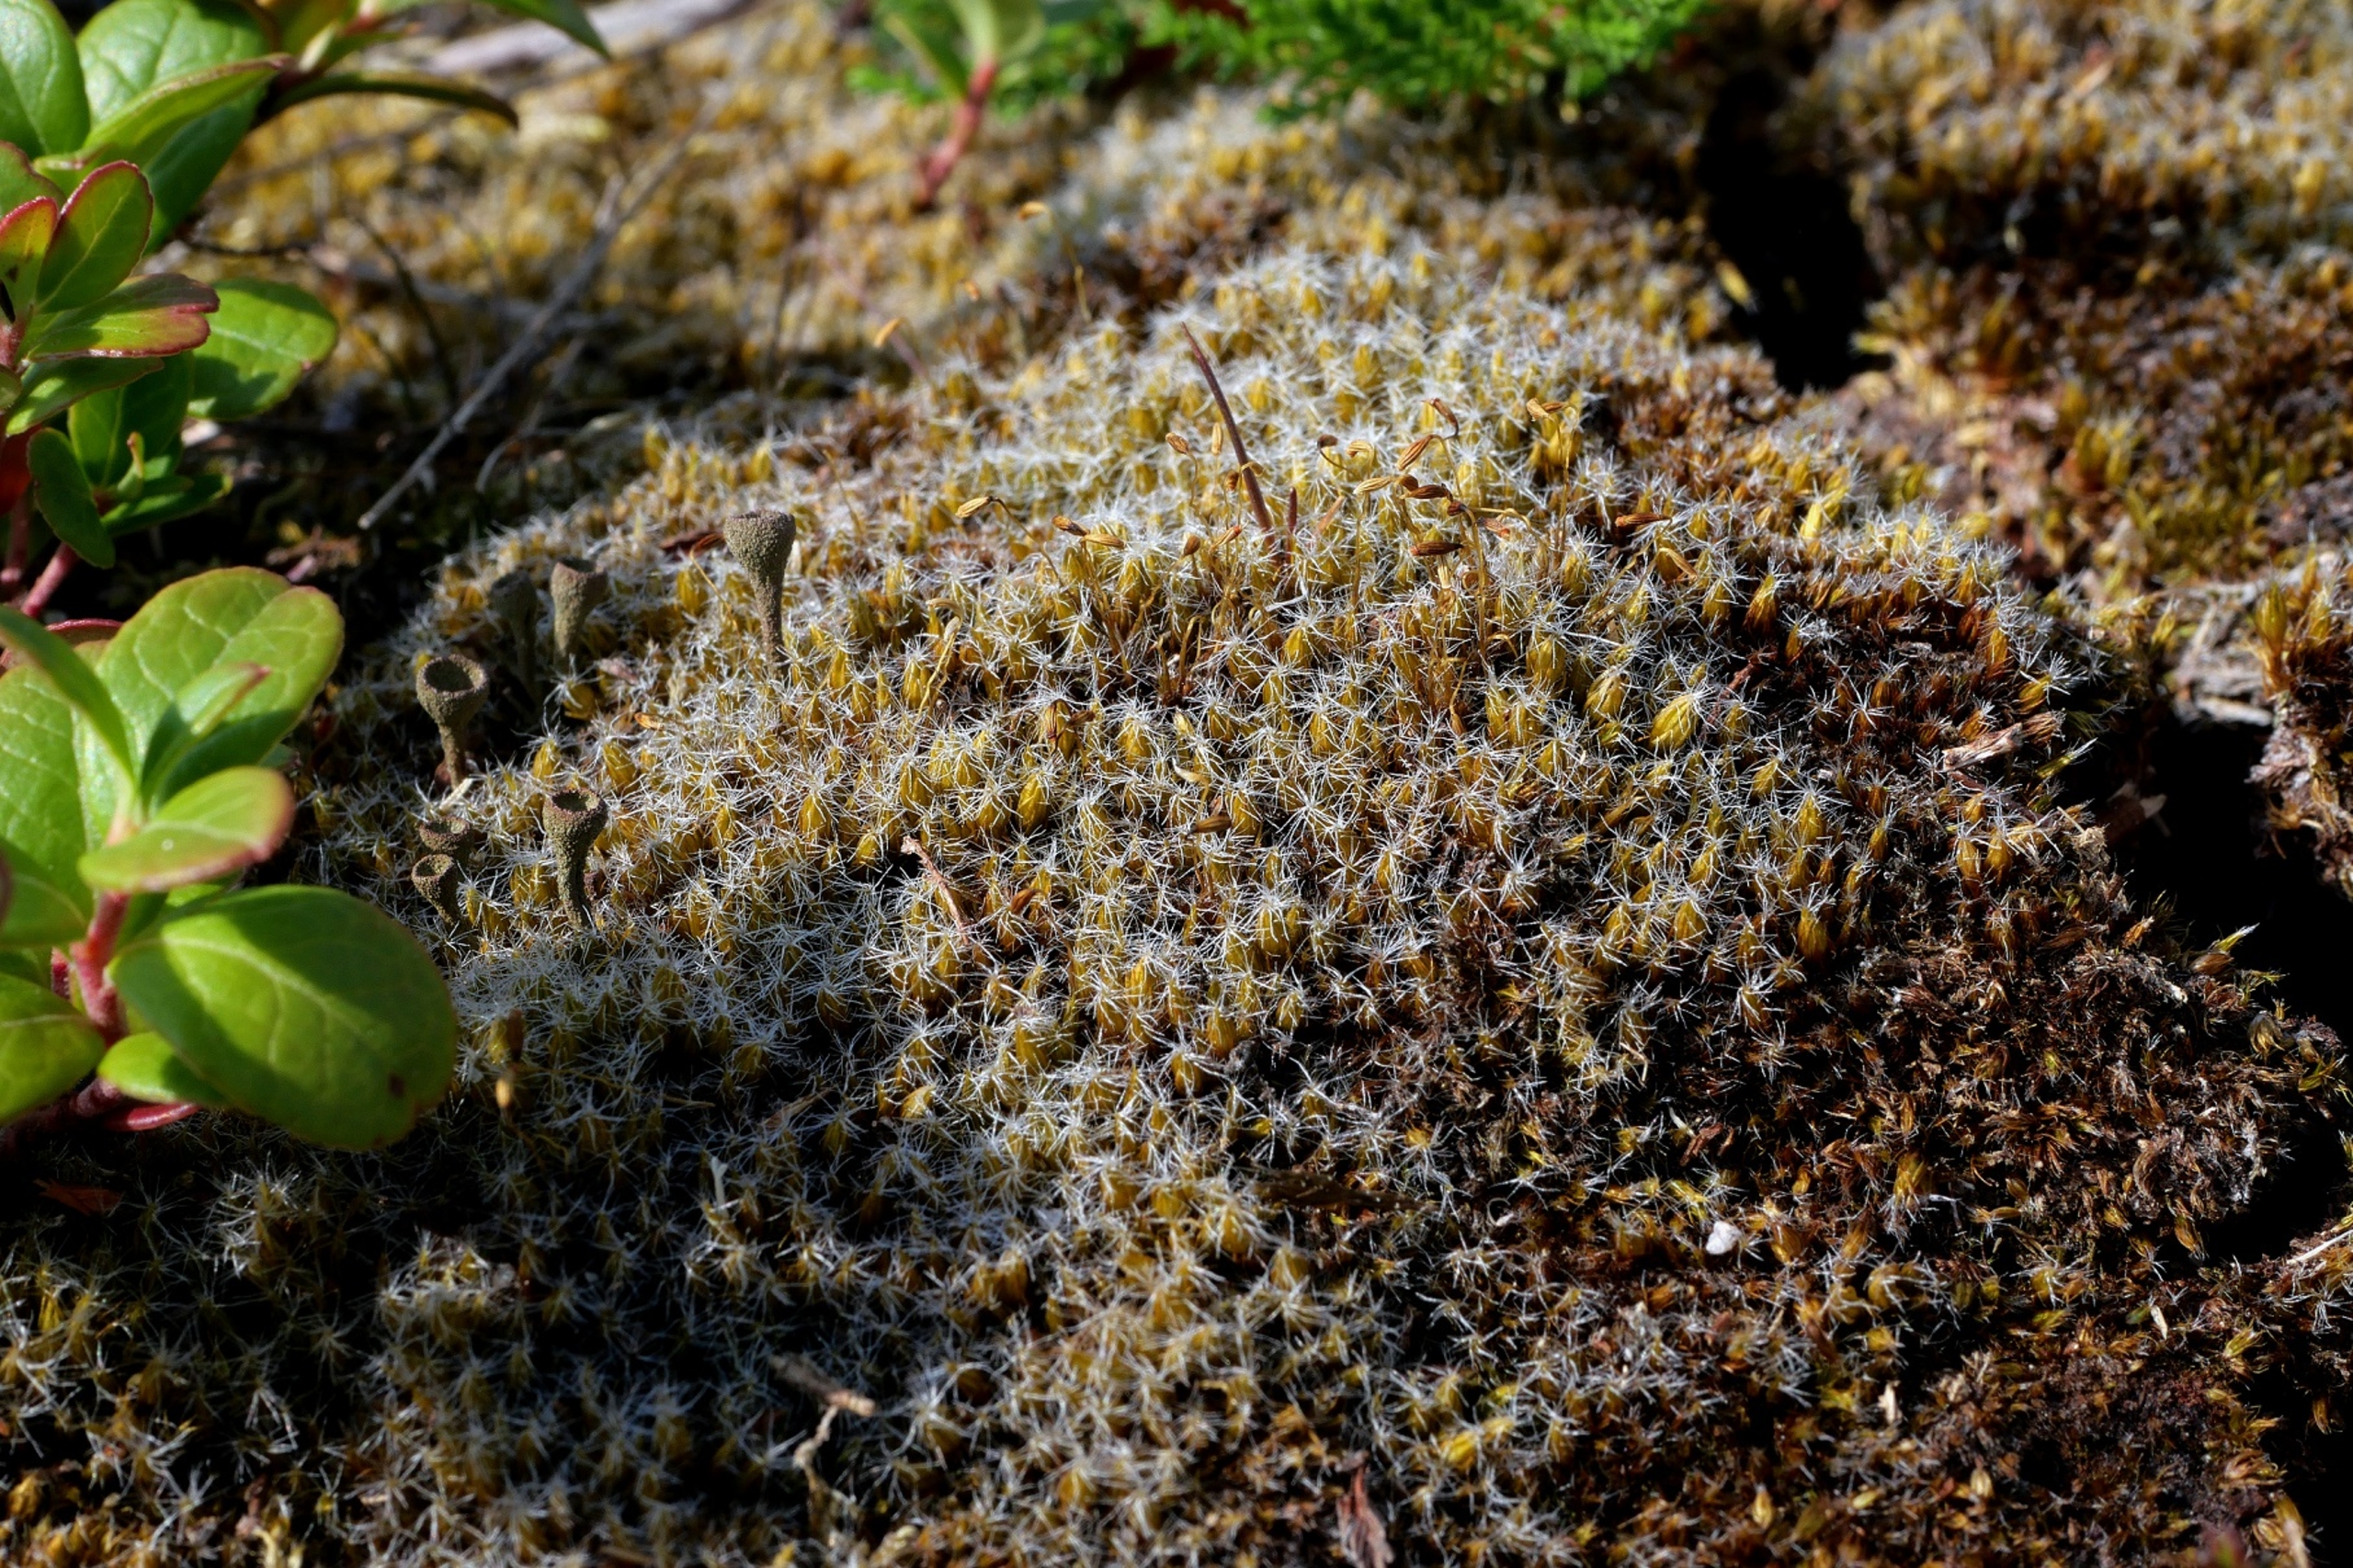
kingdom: Plantae
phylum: Bryophyta
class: Bryopsida
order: Dicranales
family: Leucobryaceae
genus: Campylopus
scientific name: Campylopus introflexus
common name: Stjerne-bredribbe
